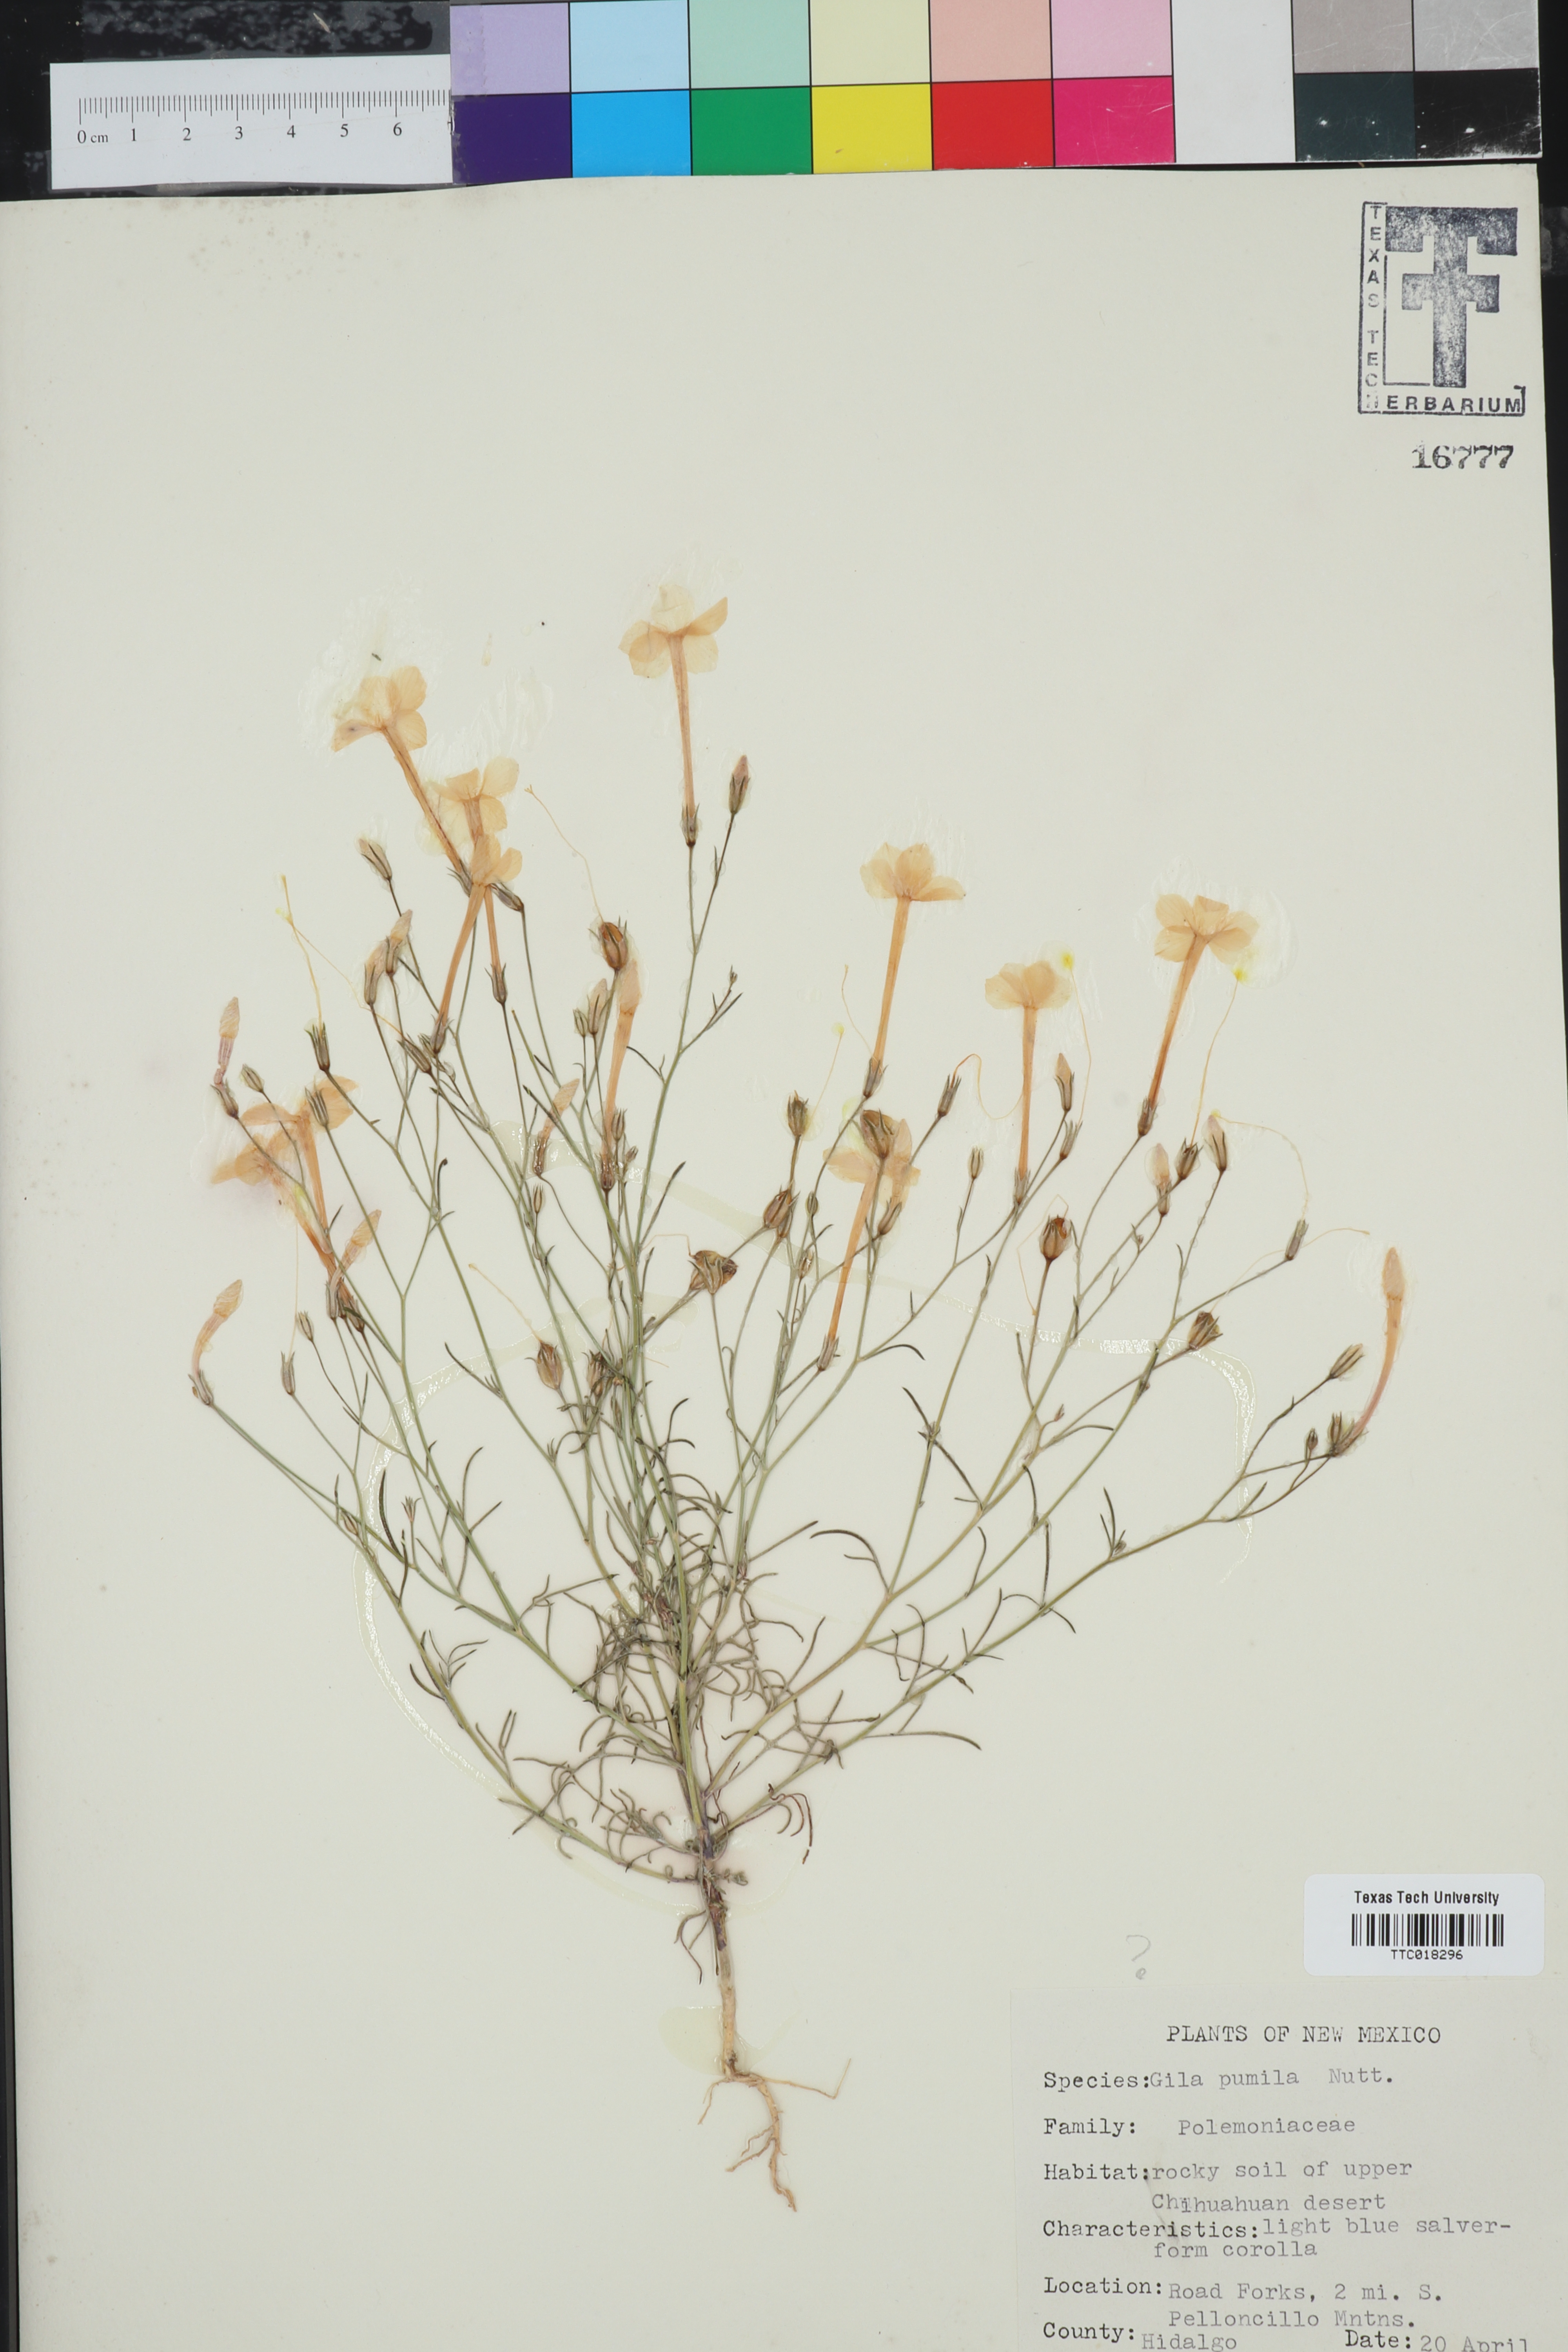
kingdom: Plantae
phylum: Tracheophyta
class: Magnoliopsida
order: Ericales
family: Polemoniaceae
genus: Ipomopsis
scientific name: Ipomopsis pumila
